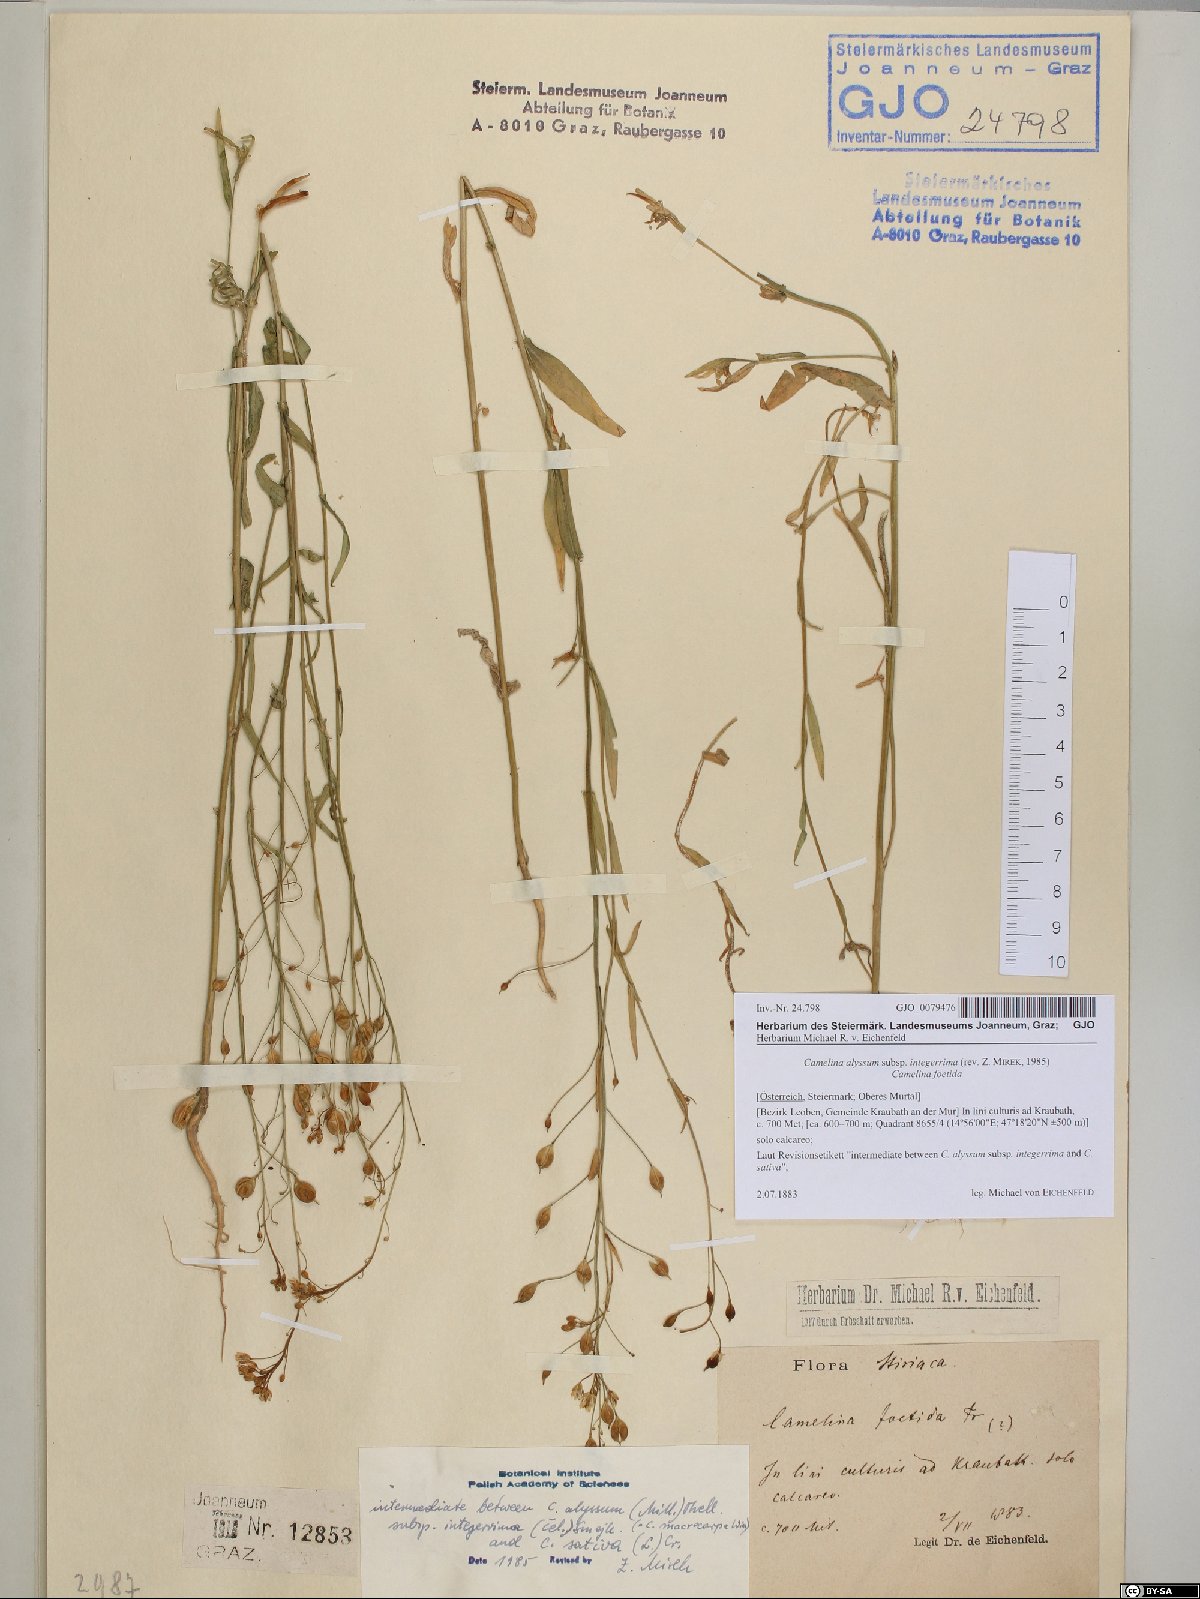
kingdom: Plantae
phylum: Tracheophyta
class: Magnoliopsida
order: Brassicales
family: Brassicaceae
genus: Camelina
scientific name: Camelina alyssum
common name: Gold-of-pleasure
